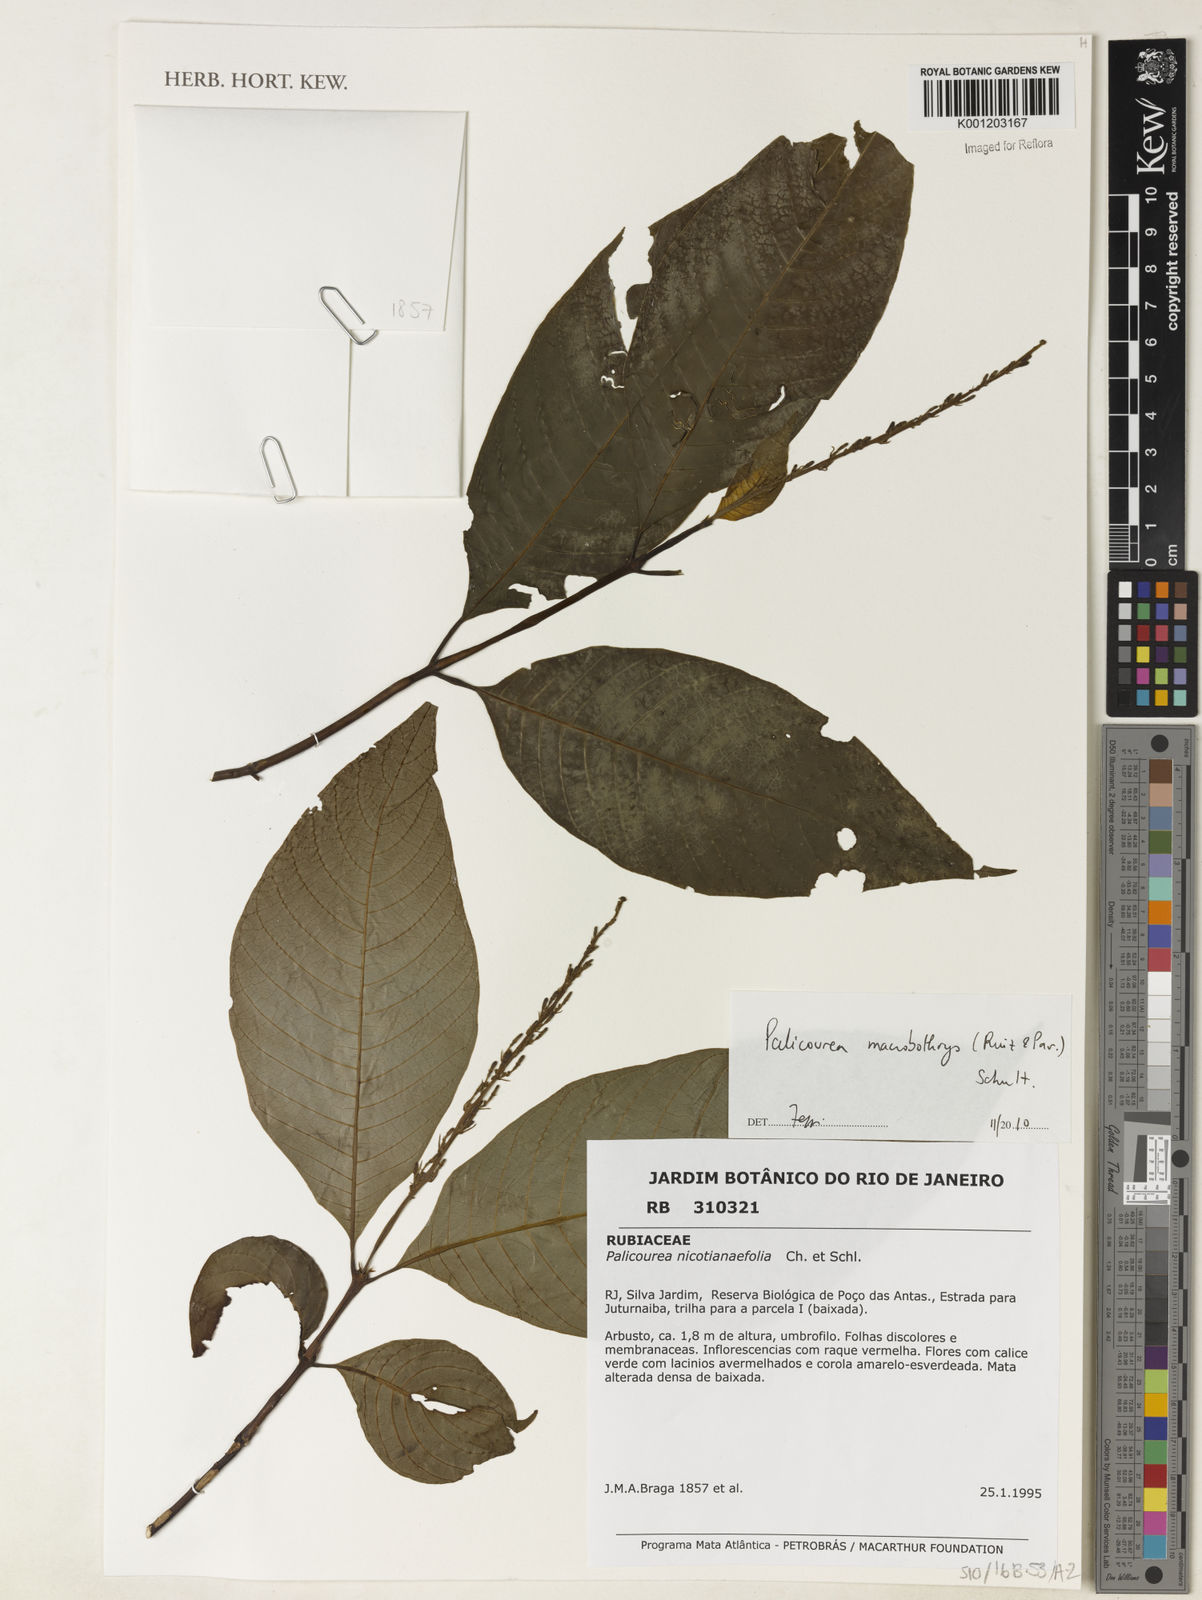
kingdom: Plantae
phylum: Tracheophyta
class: Magnoliopsida
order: Gentianales
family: Rubiaceae
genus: Palicourea
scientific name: Palicourea macrobotrys
